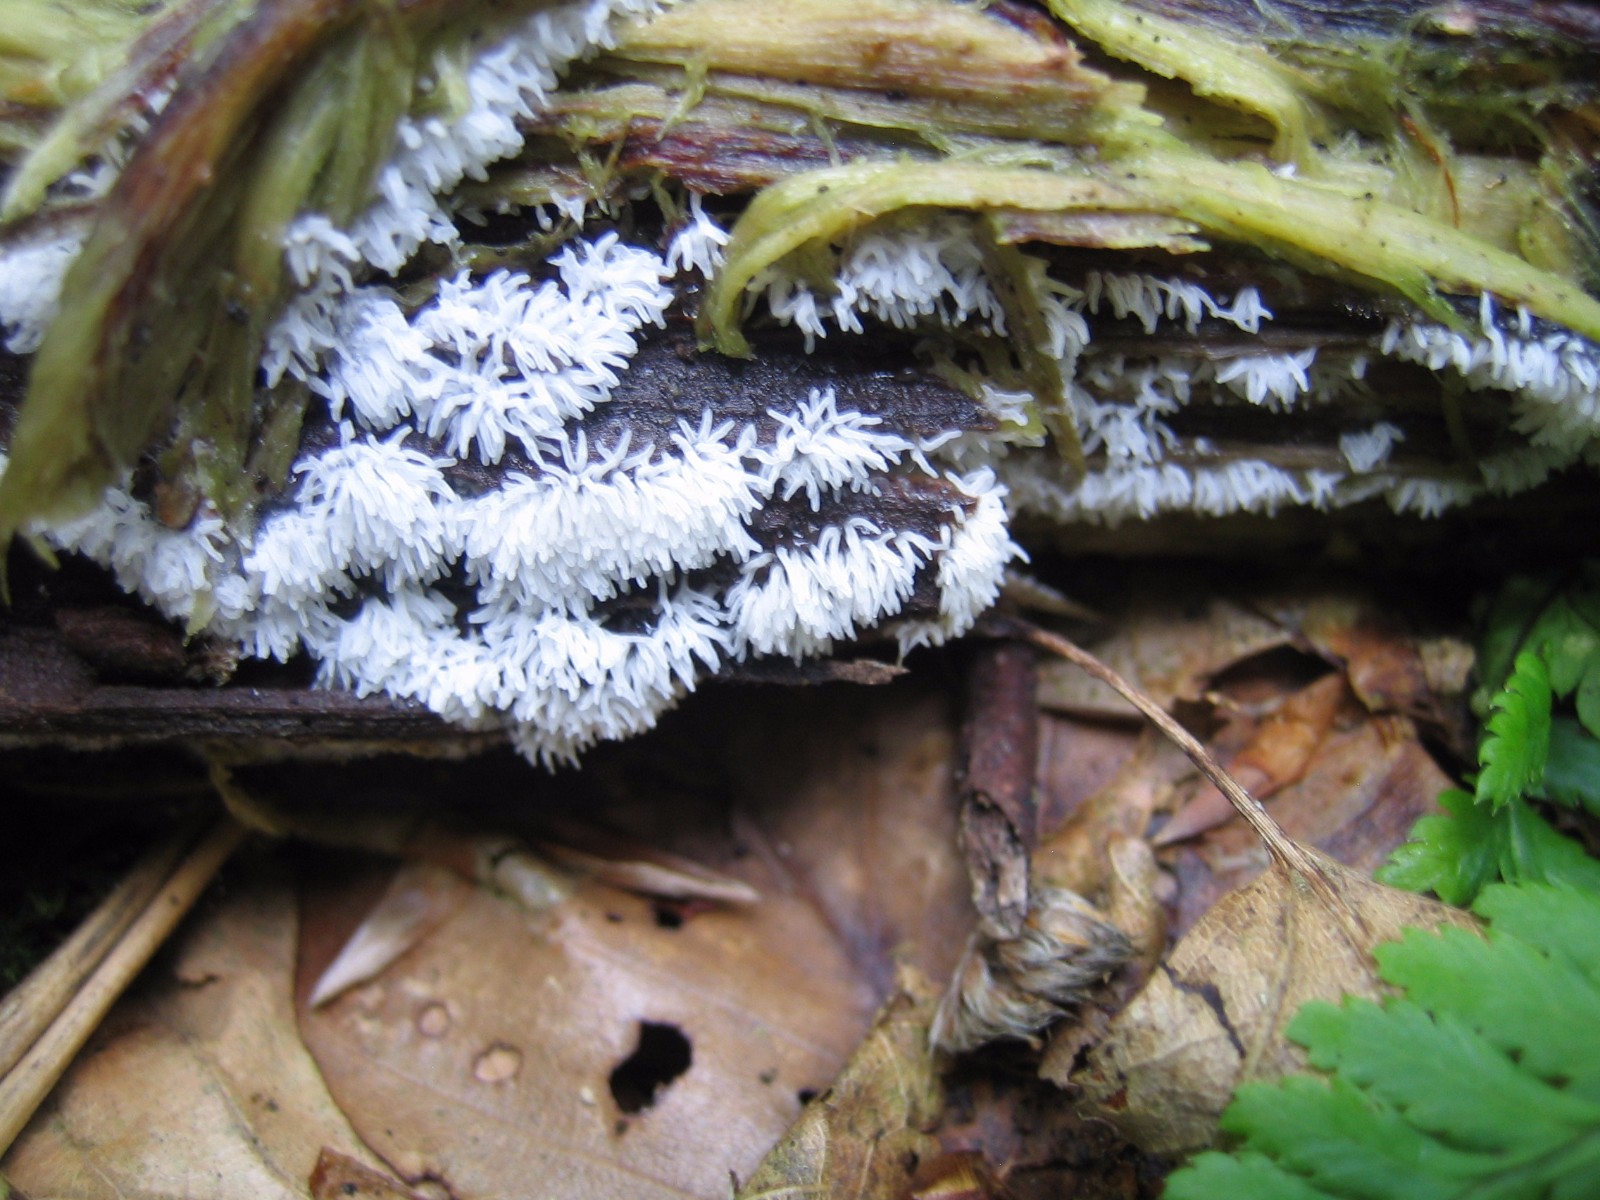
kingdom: Protozoa
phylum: Mycetozoa
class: Protosteliomycetes
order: Ceratiomyxales
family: Ceratiomyxaceae
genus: Ceratiomyxa
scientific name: Ceratiomyxa fruticulosa
